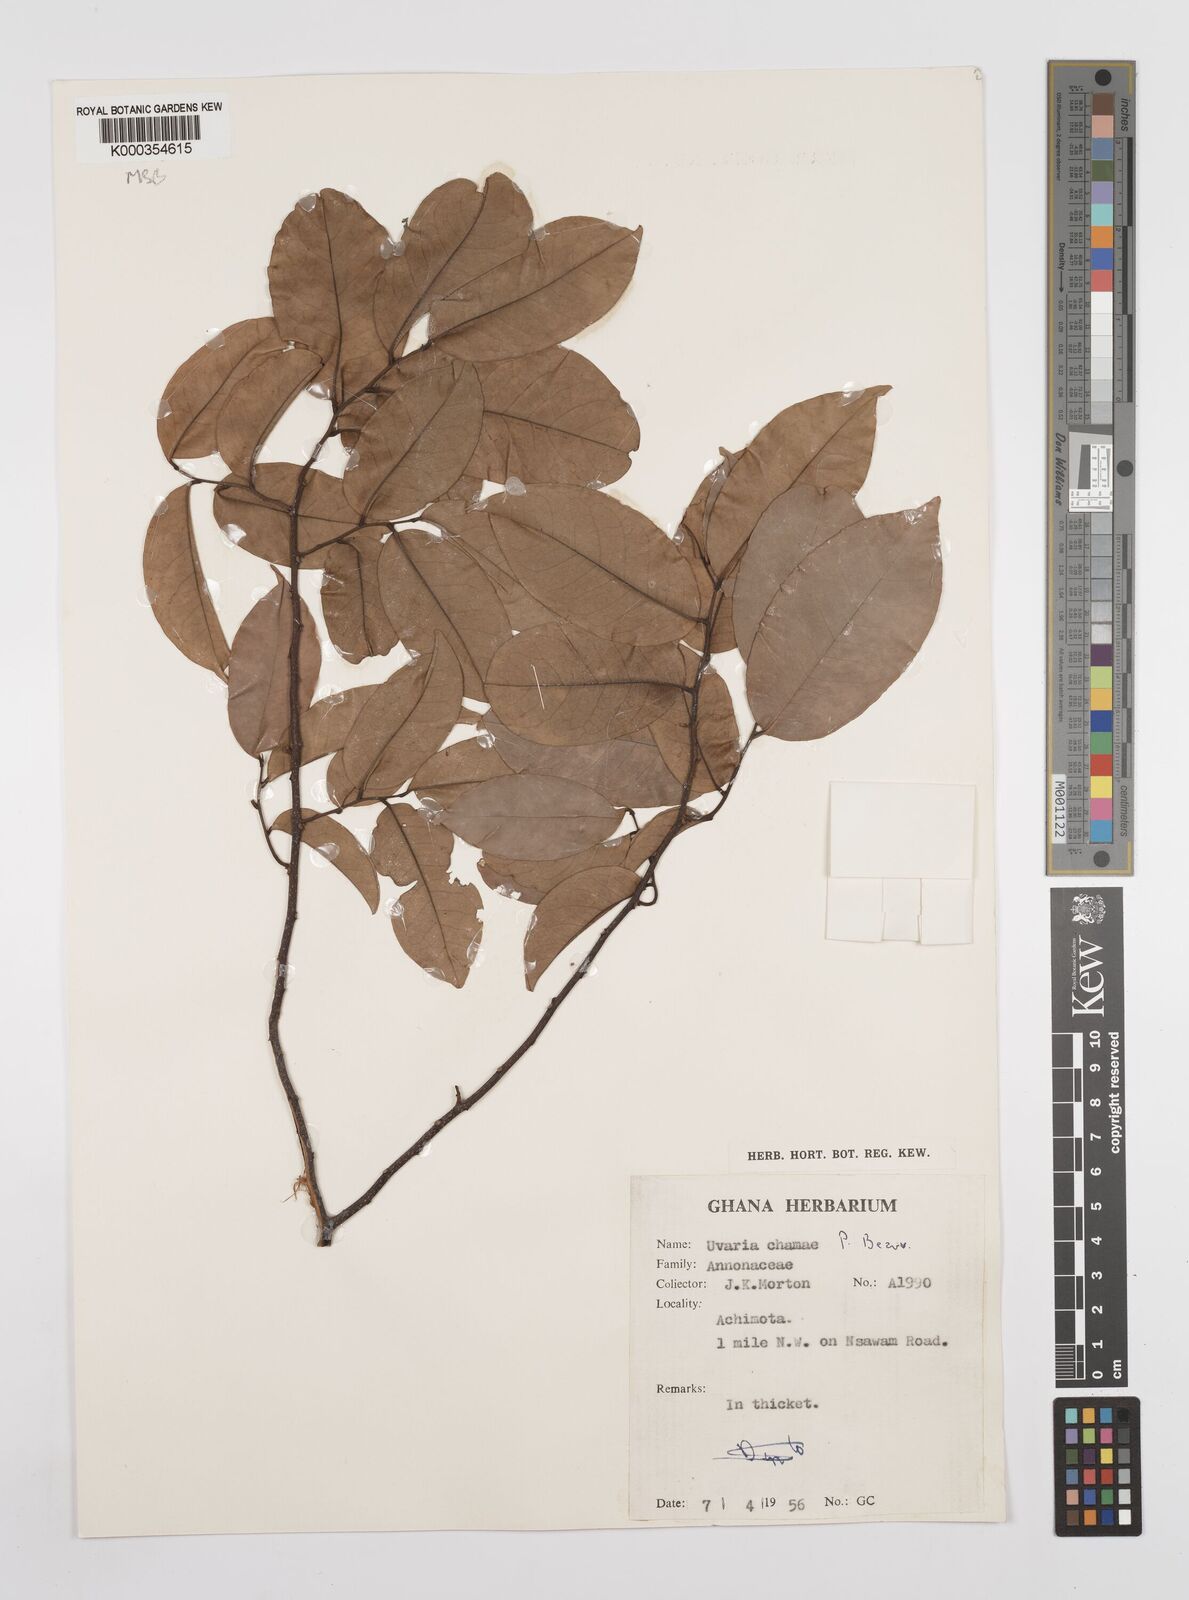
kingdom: Plantae
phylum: Tracheophyta
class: Magnoliopsida
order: Magnoliales
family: Annonaceae
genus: Uvaria
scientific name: Uvaria chamae
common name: Finger-root
